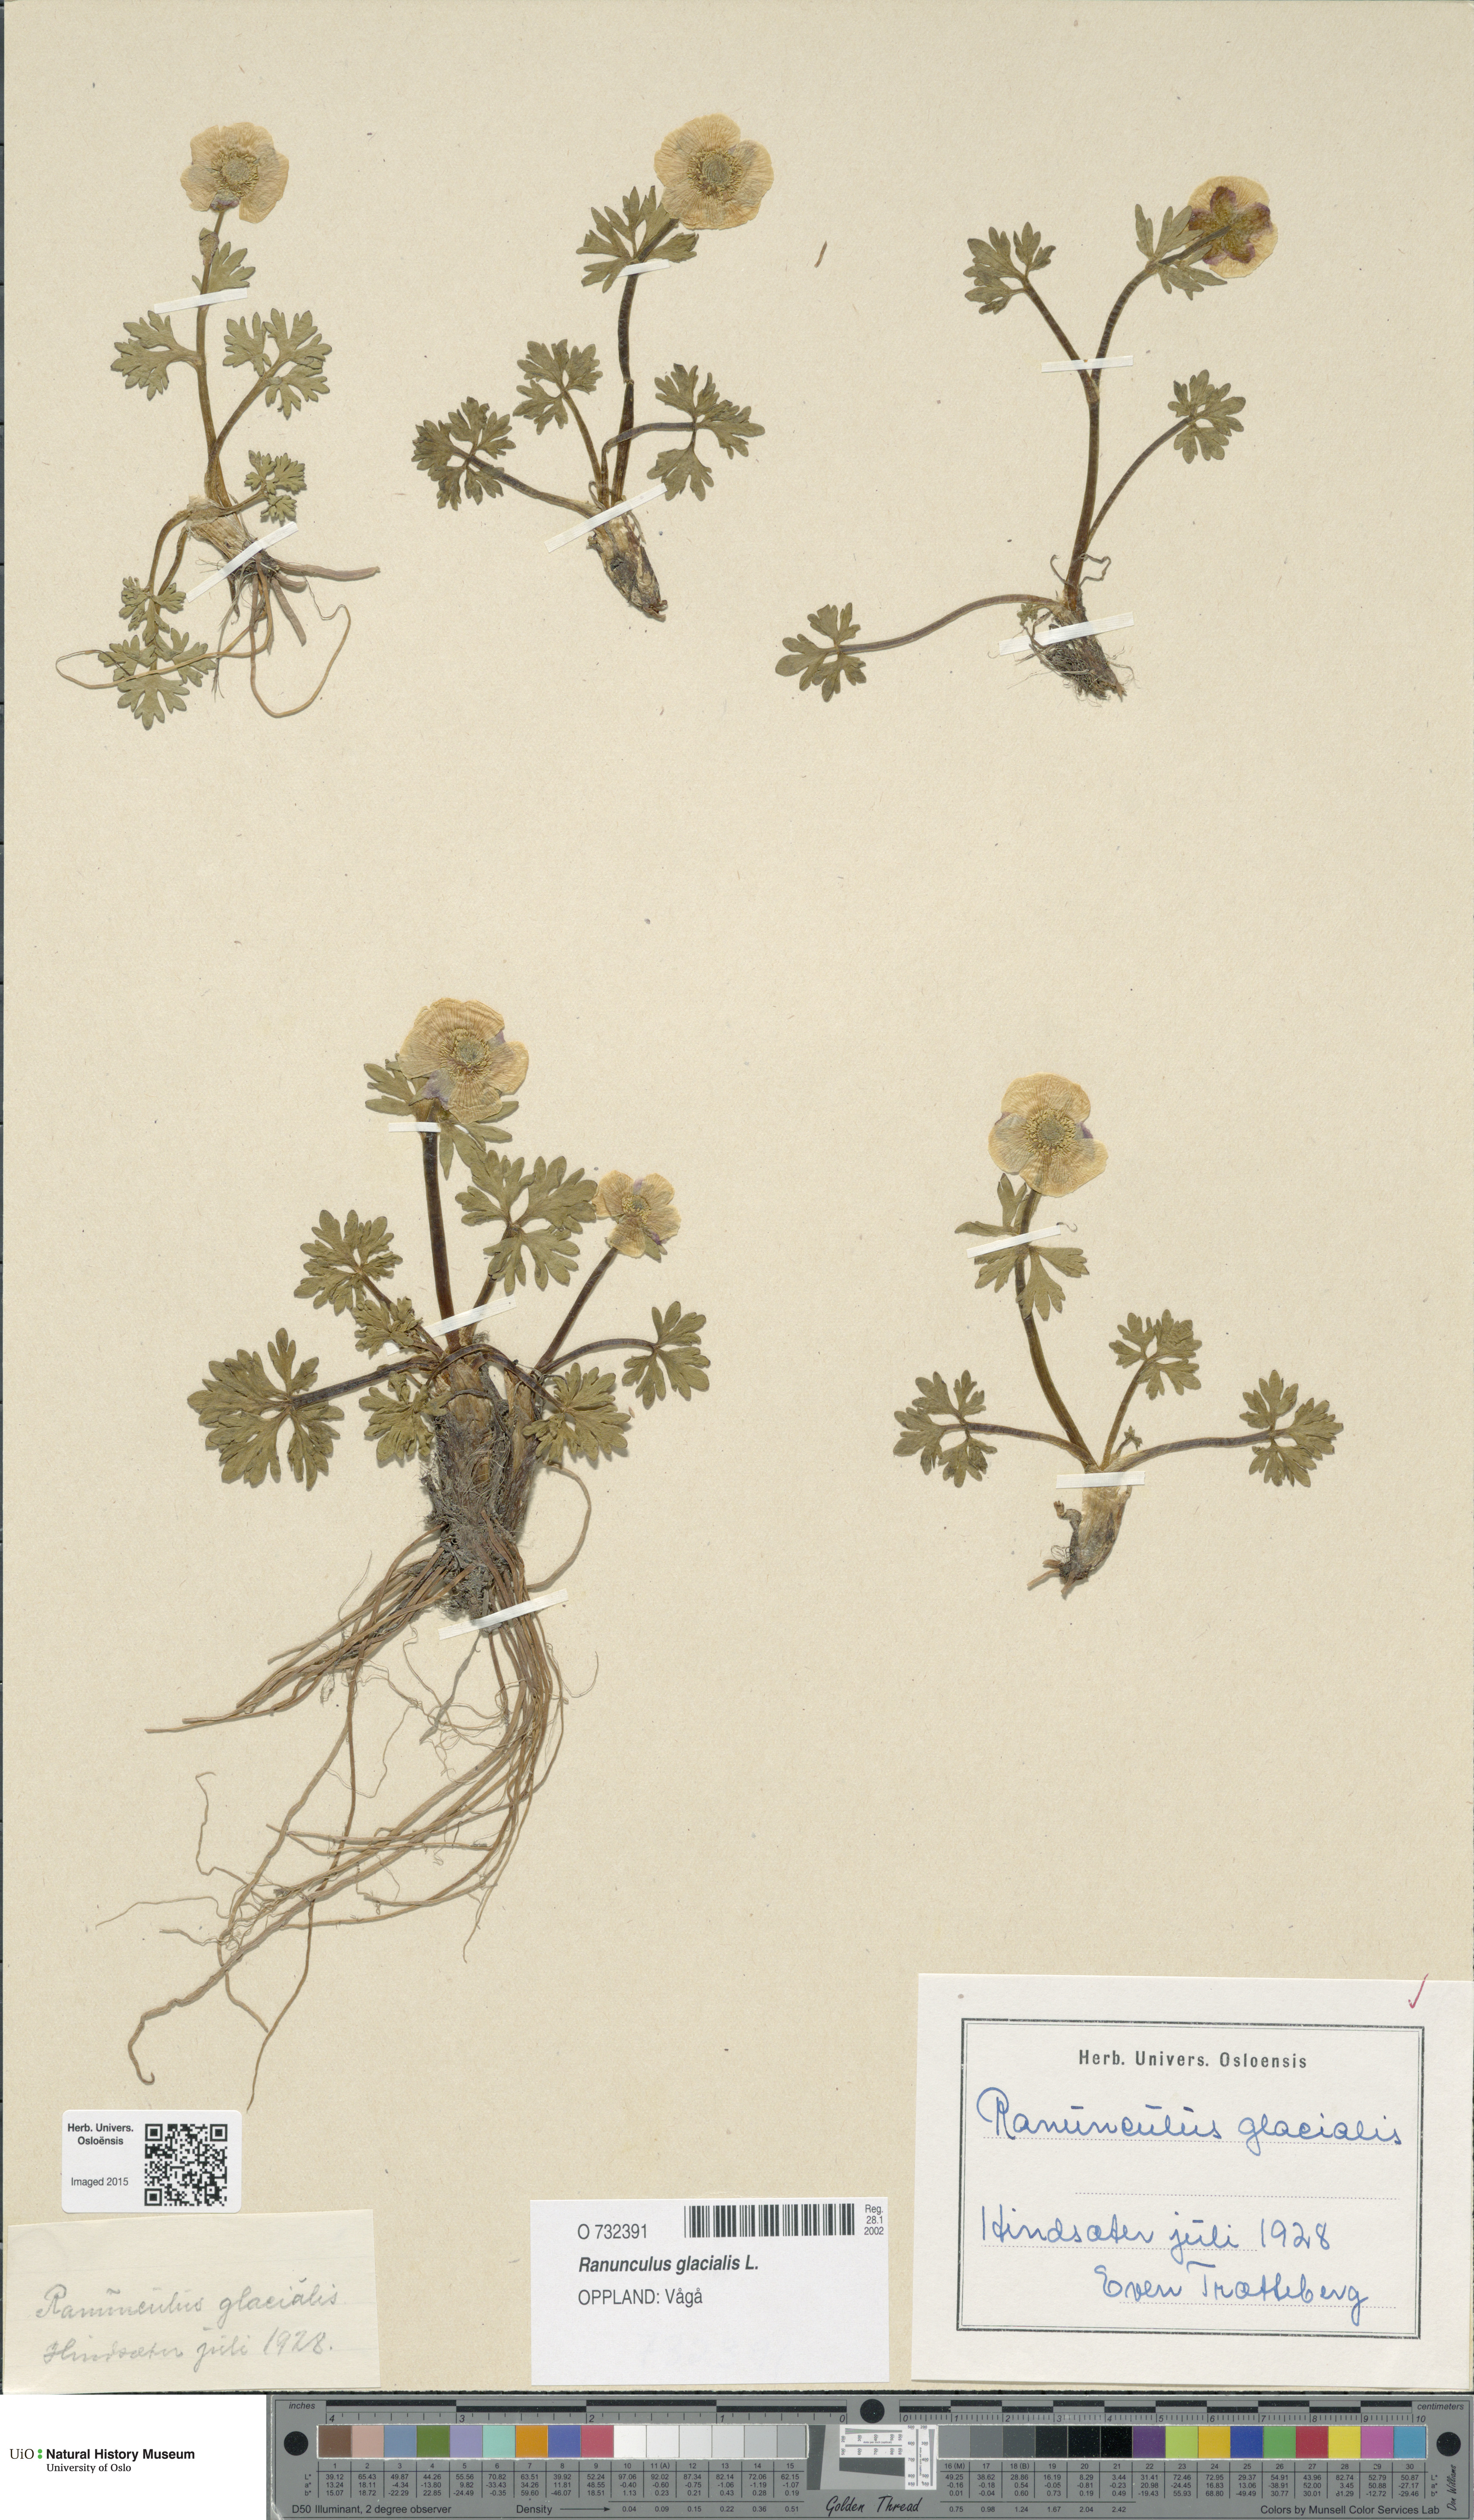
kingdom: Plantae
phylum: Tracheophyta
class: Magnoliopsida
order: Ranunculales
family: Ranunculaceae
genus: Ranunculus
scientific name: Ranunculus glacialis
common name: Glacier buttercup
